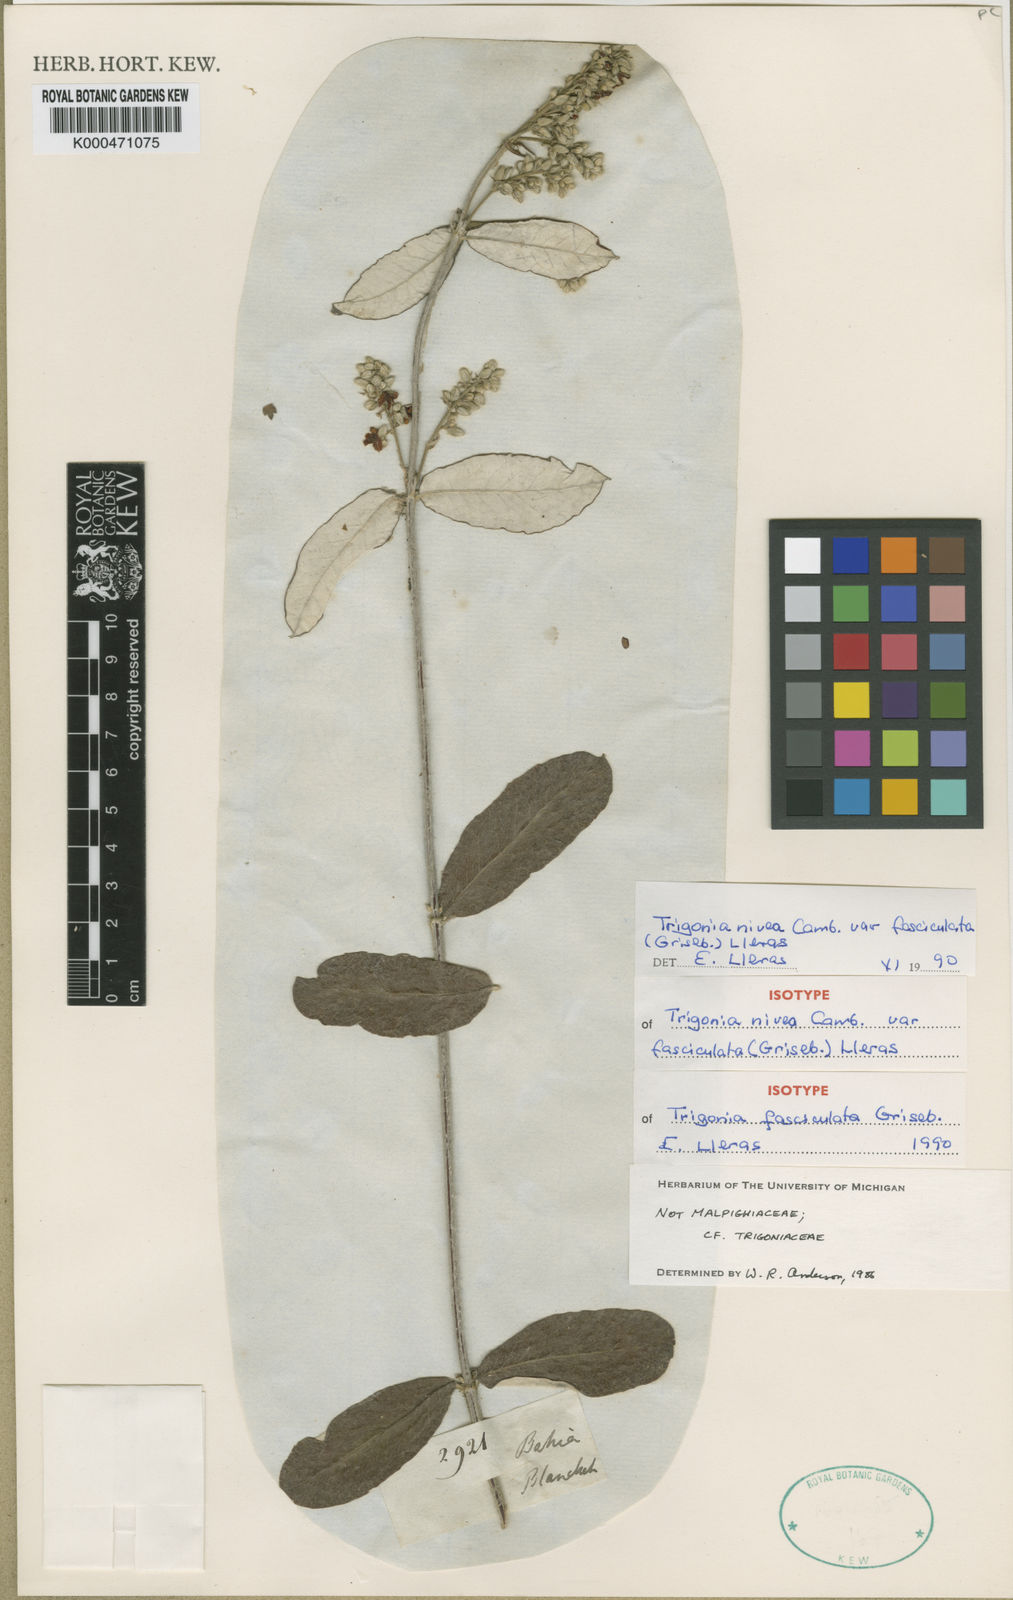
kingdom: Plantae
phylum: Tracheophyta
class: Magnoliopsida
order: Malpighiales
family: Trigoniaceae
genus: Trigonia
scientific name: Trigonia nivea
